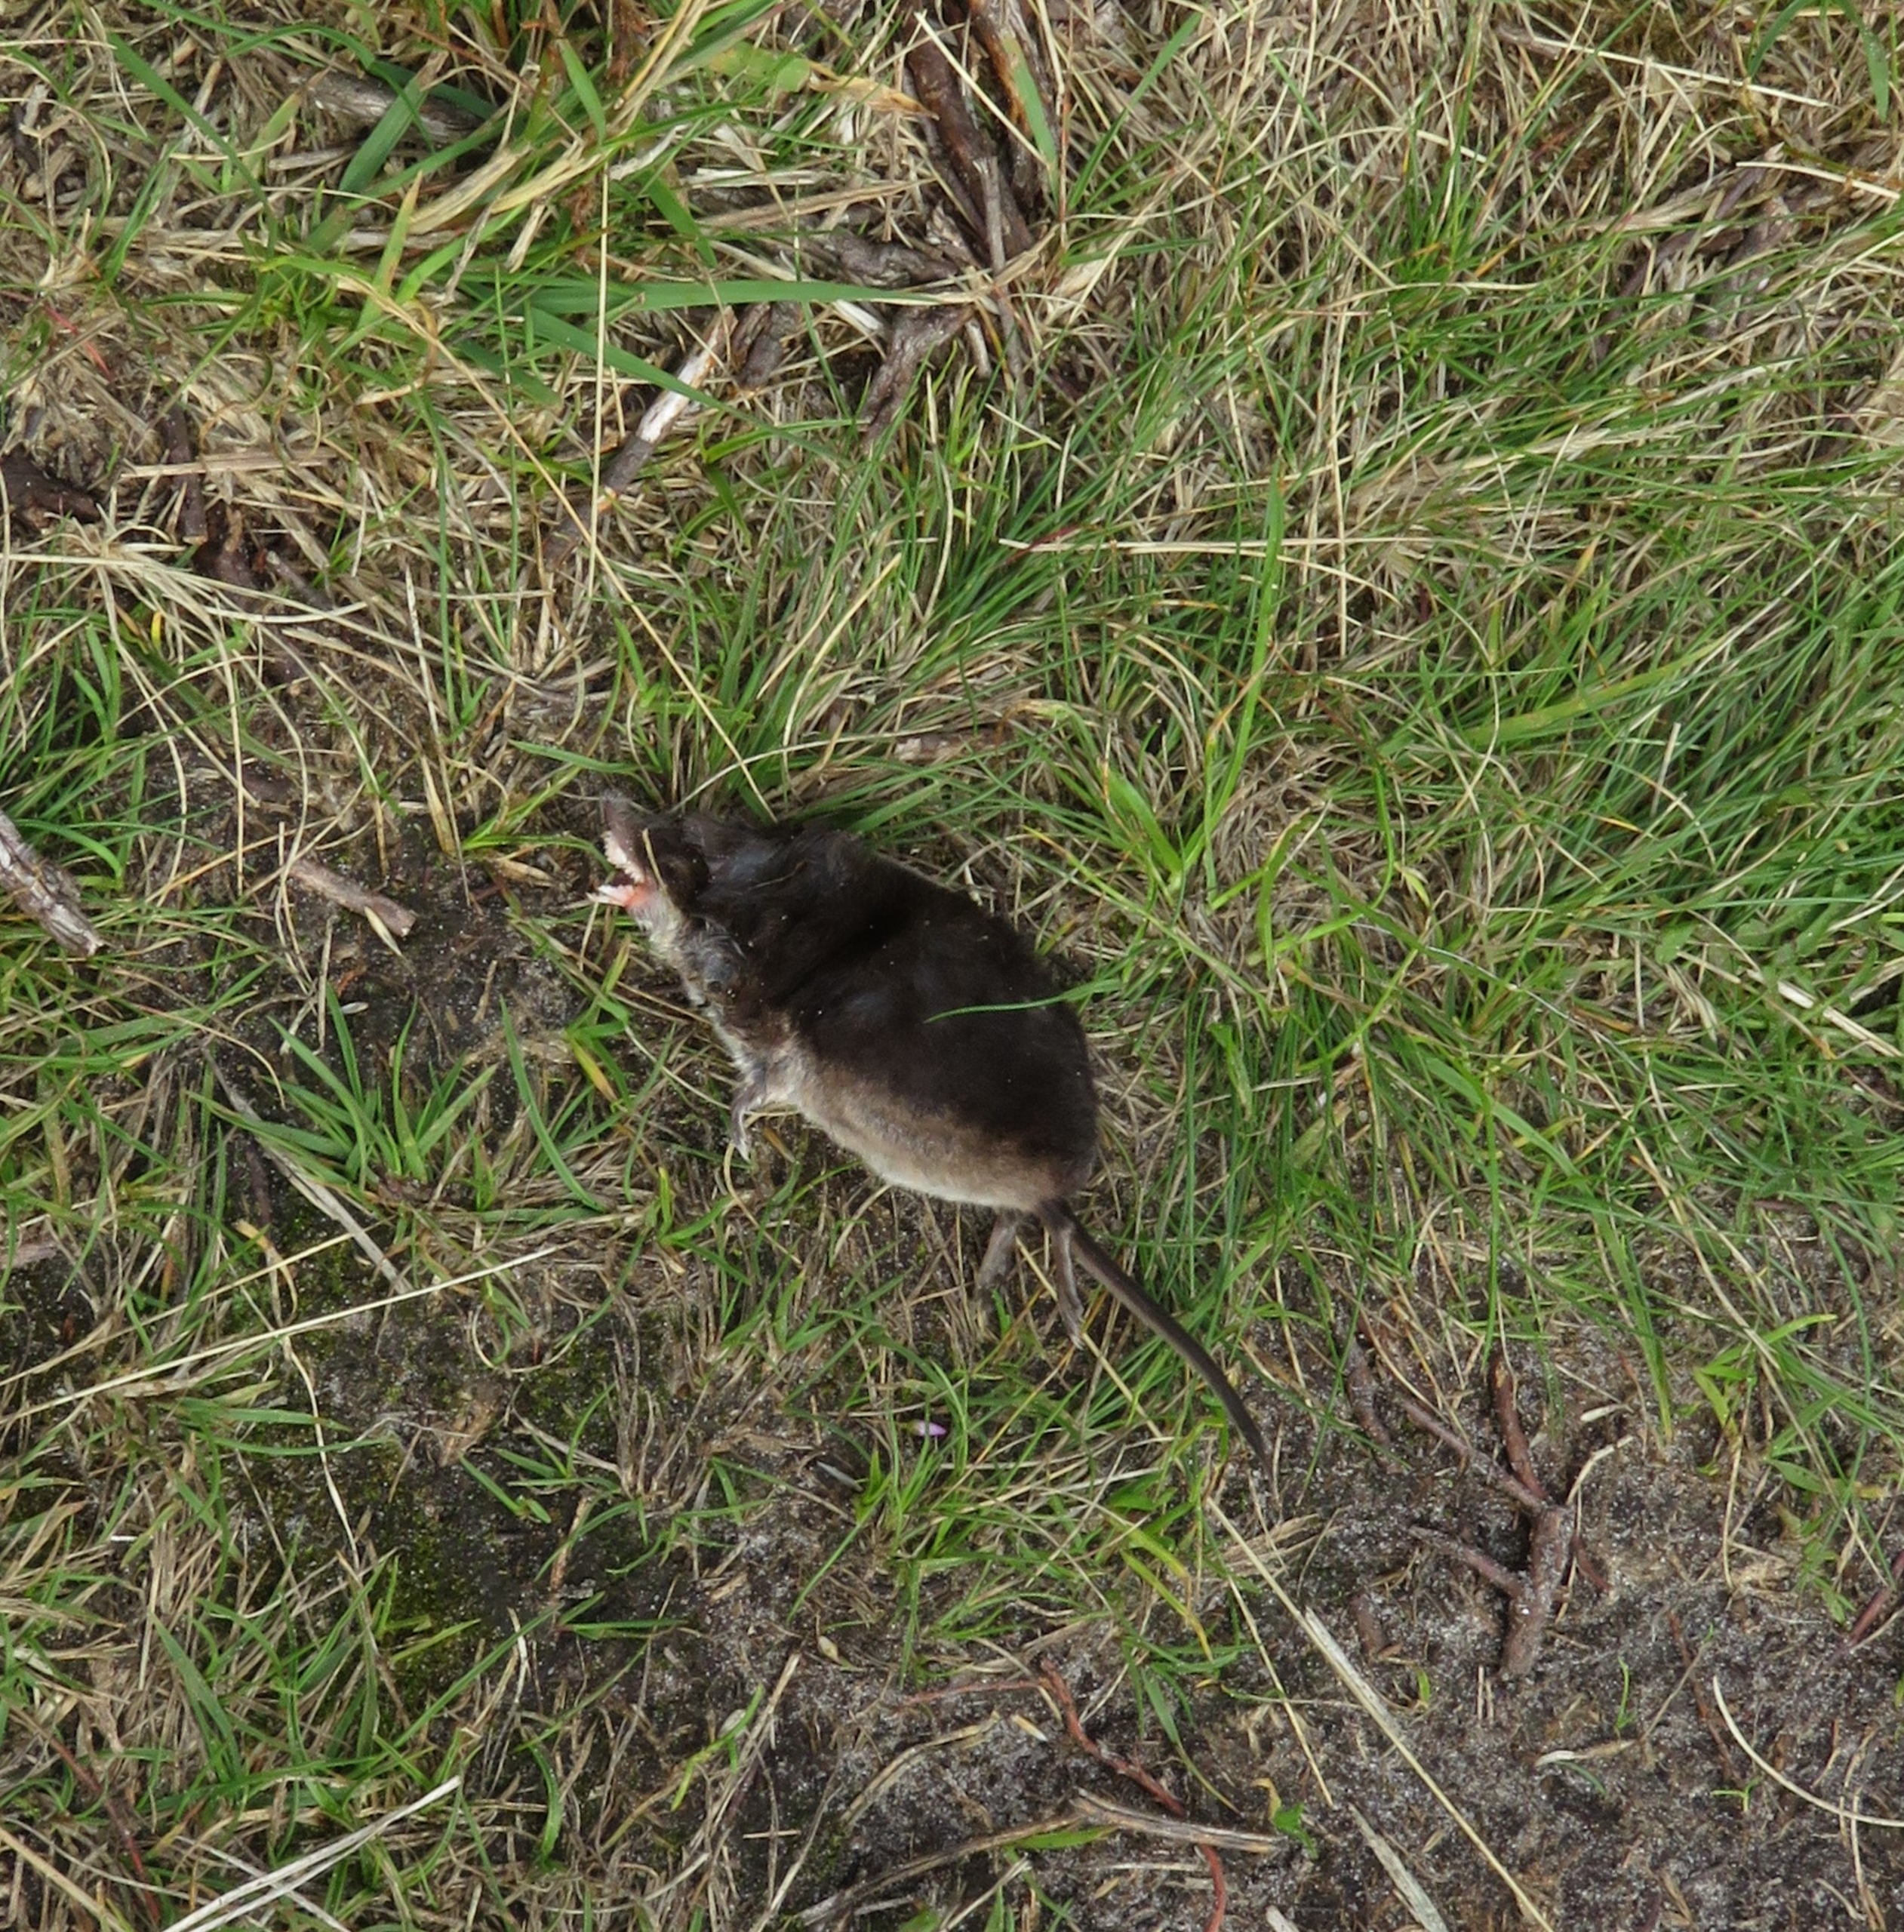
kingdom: Animalia
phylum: Chordata
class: Mammalia
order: Soricomorpha
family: Soricidae
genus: Sorex
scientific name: Sorex araneus
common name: Almindelig spidsmus
